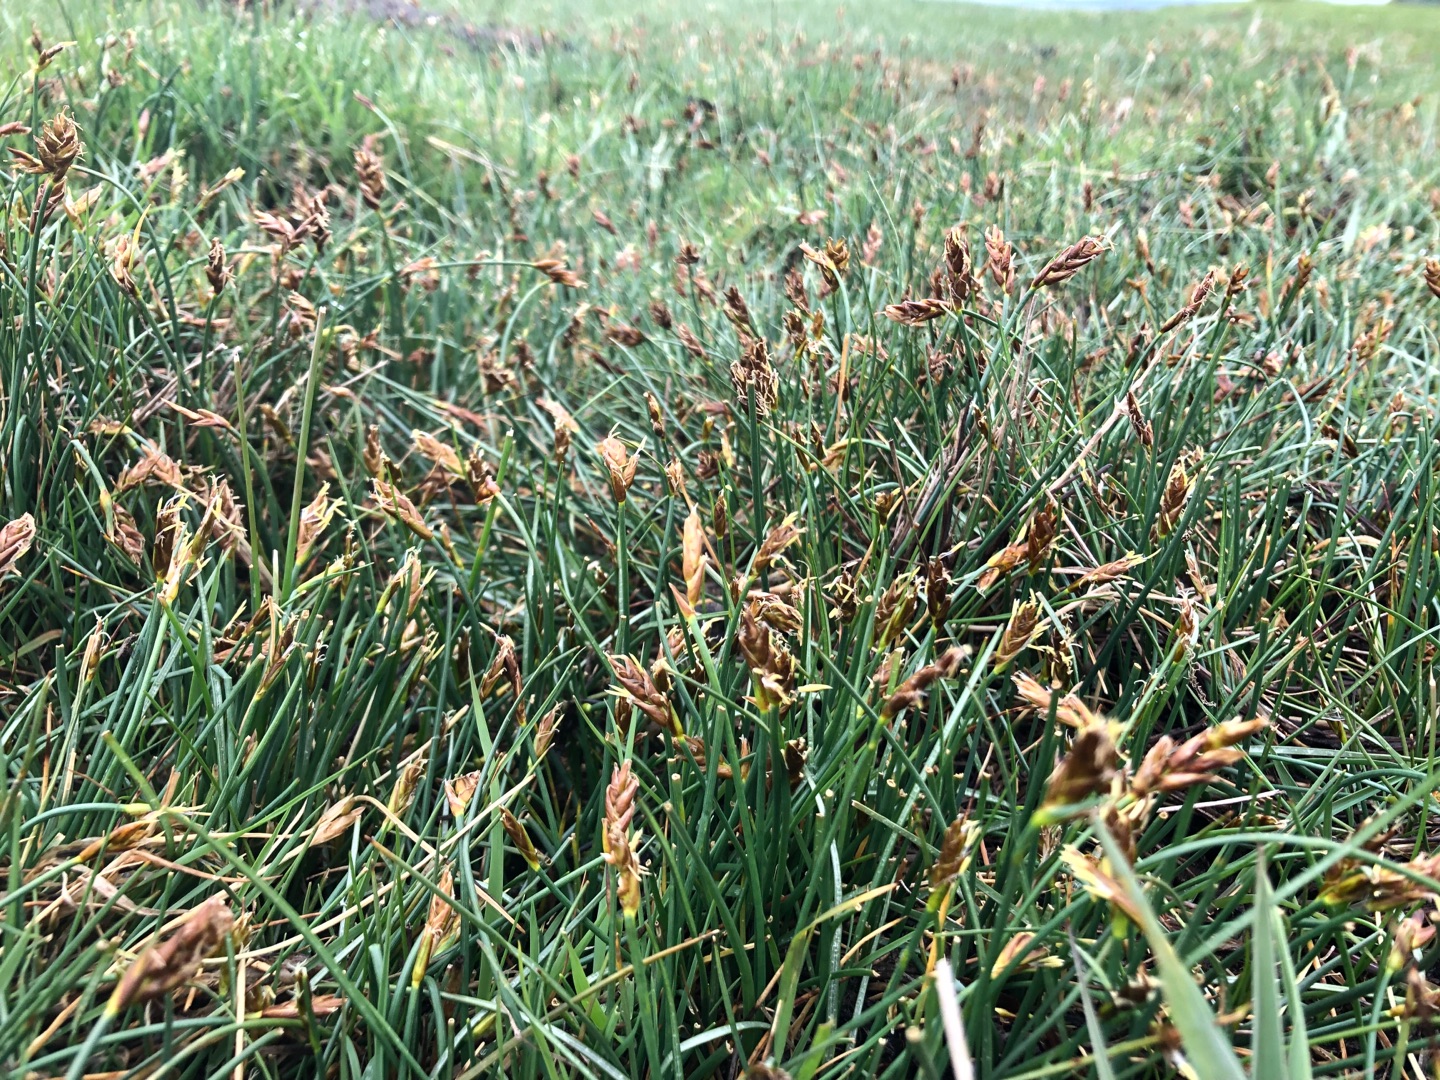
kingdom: Plantae
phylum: Tracheophyta
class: Liliopsida
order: Poales
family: Cyperaceae
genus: Blysmus
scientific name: Blysmus rufus
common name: Rødbrun kogleaks
